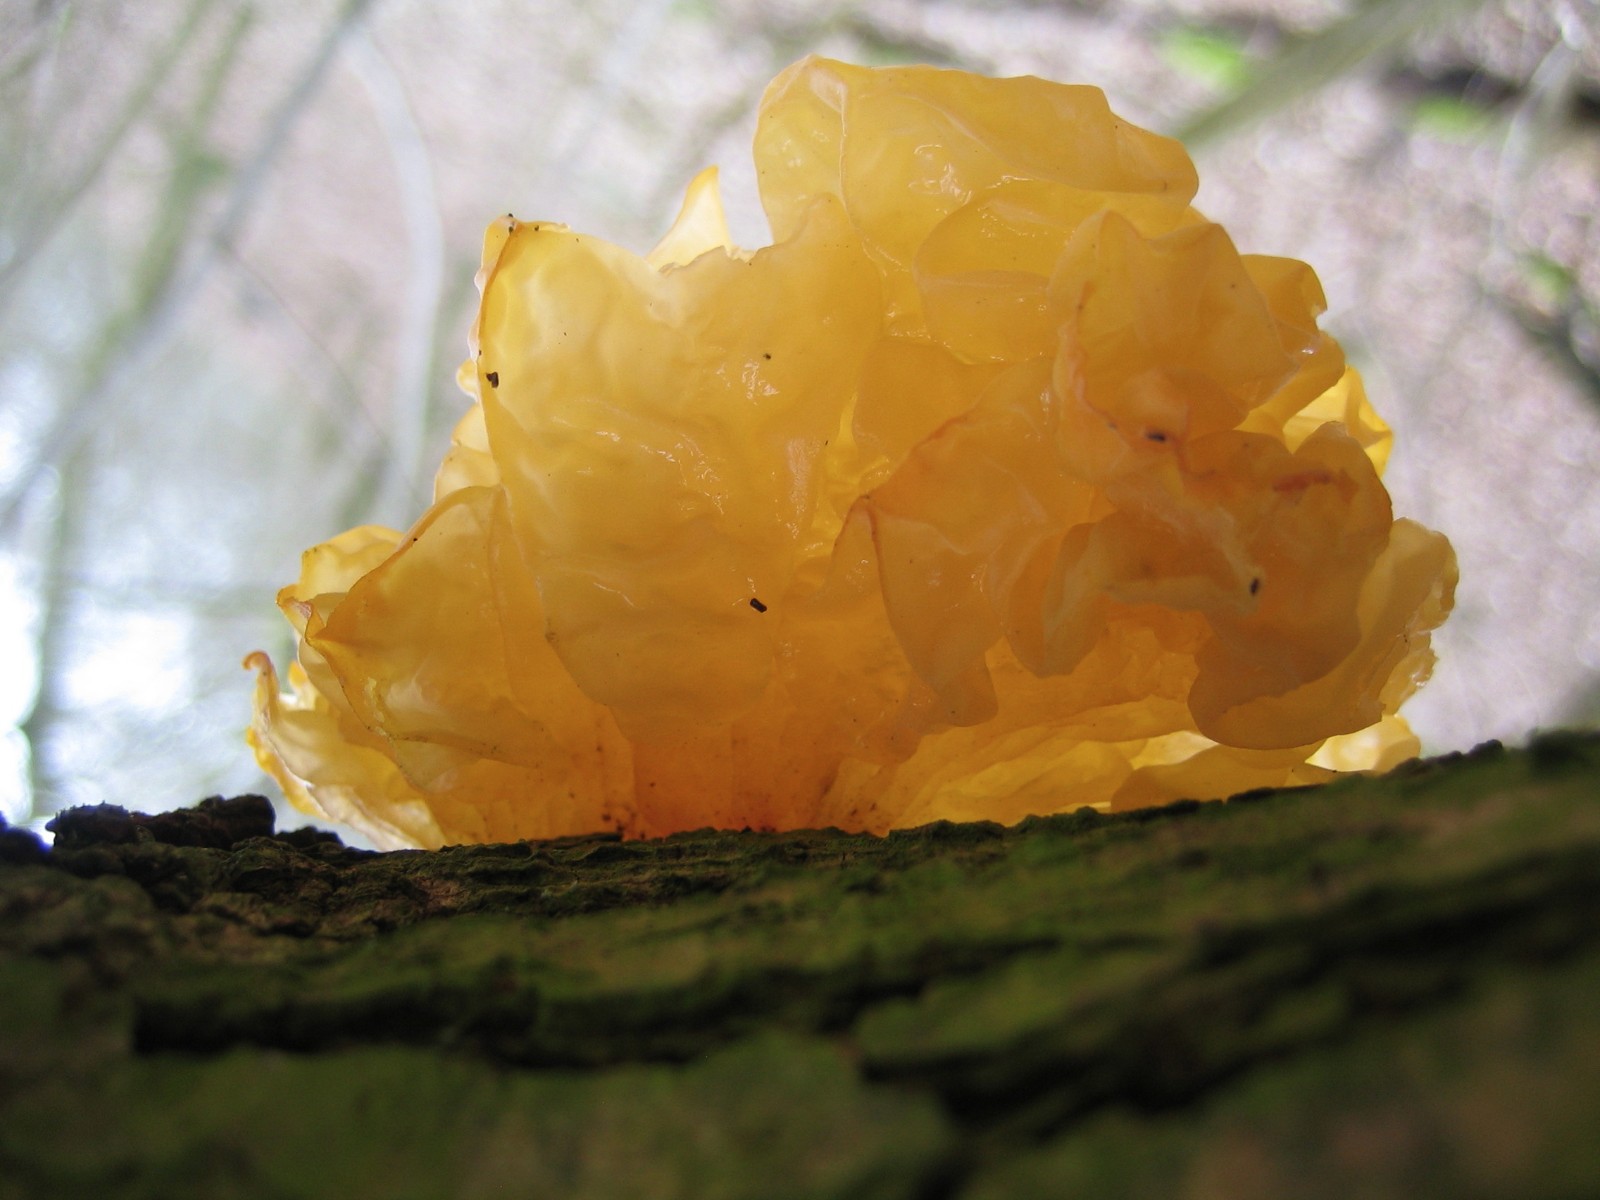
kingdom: Fungi
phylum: Basidiomycota
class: Tremellomycetes
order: Tremellales
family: Tremellaceae
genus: Tremella
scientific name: Tremella mesenterica
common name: gul bævresvamp
